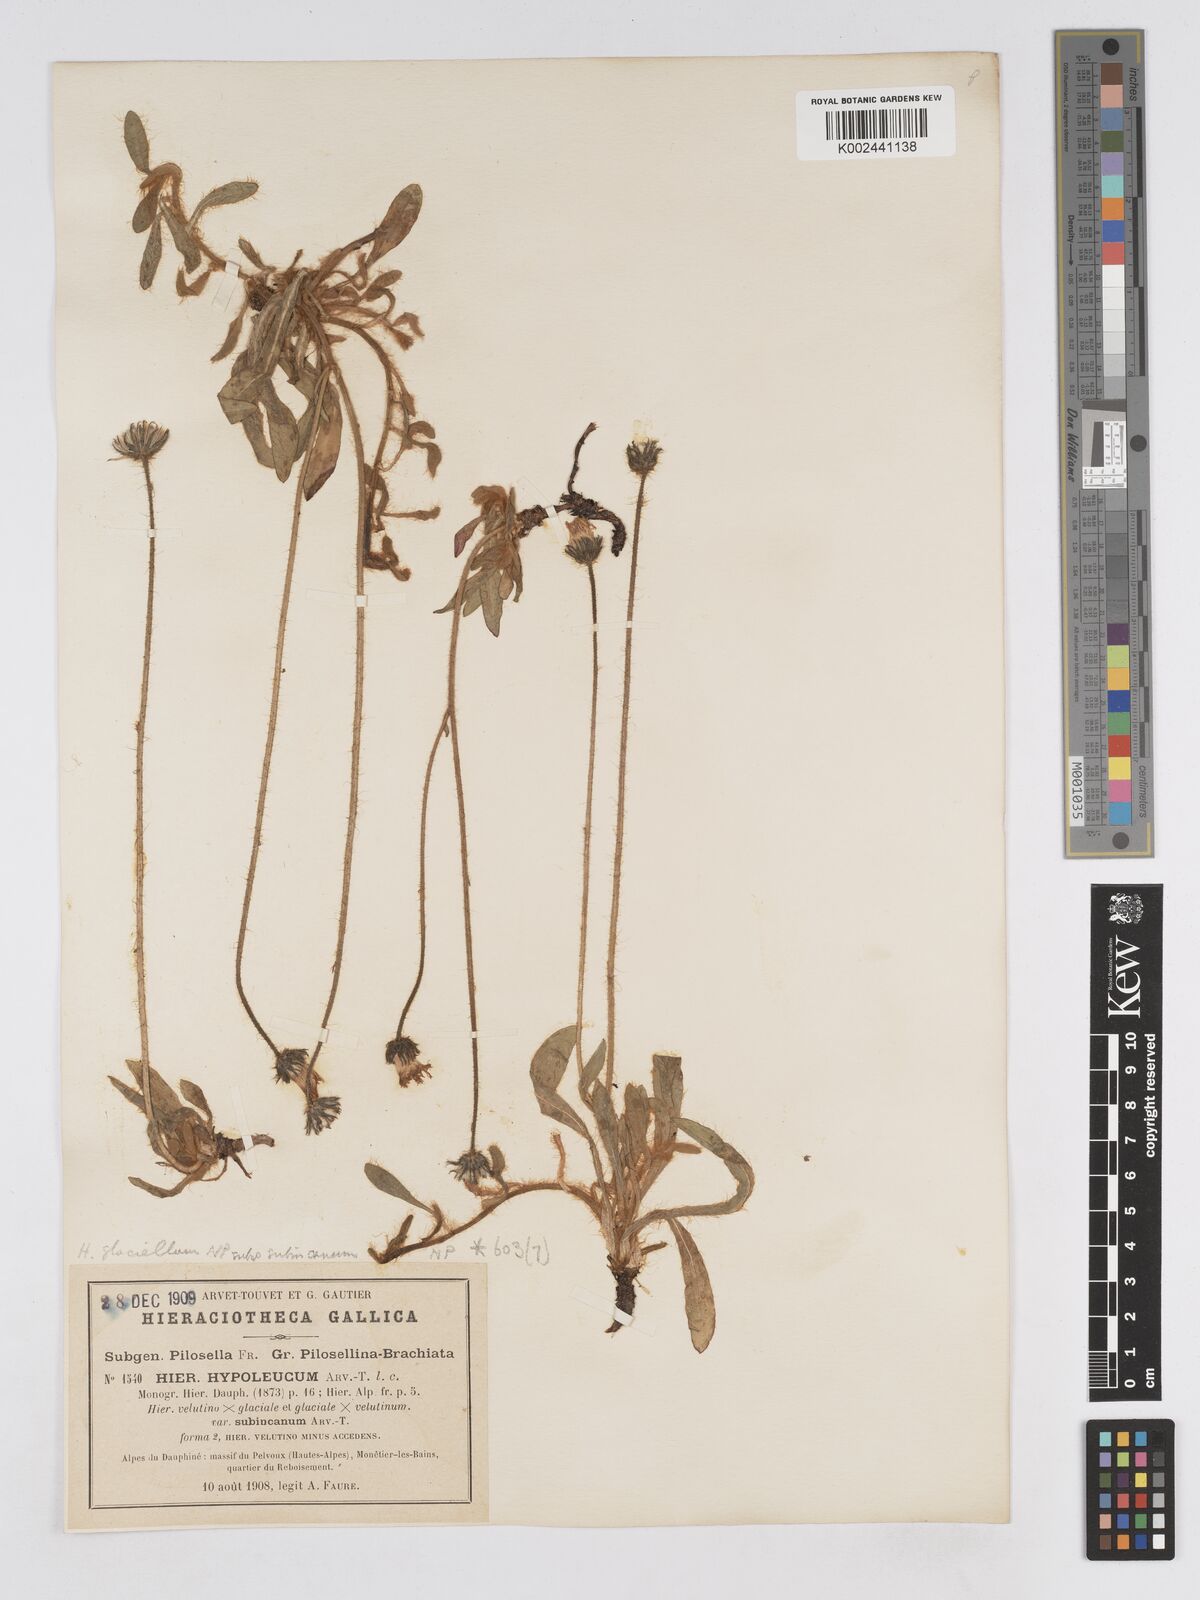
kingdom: Plantae
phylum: Tracheophyta
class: Magnoliopsida
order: Asterales
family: Asteraceae
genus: Pilosella
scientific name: Pilosella hypoleuca
